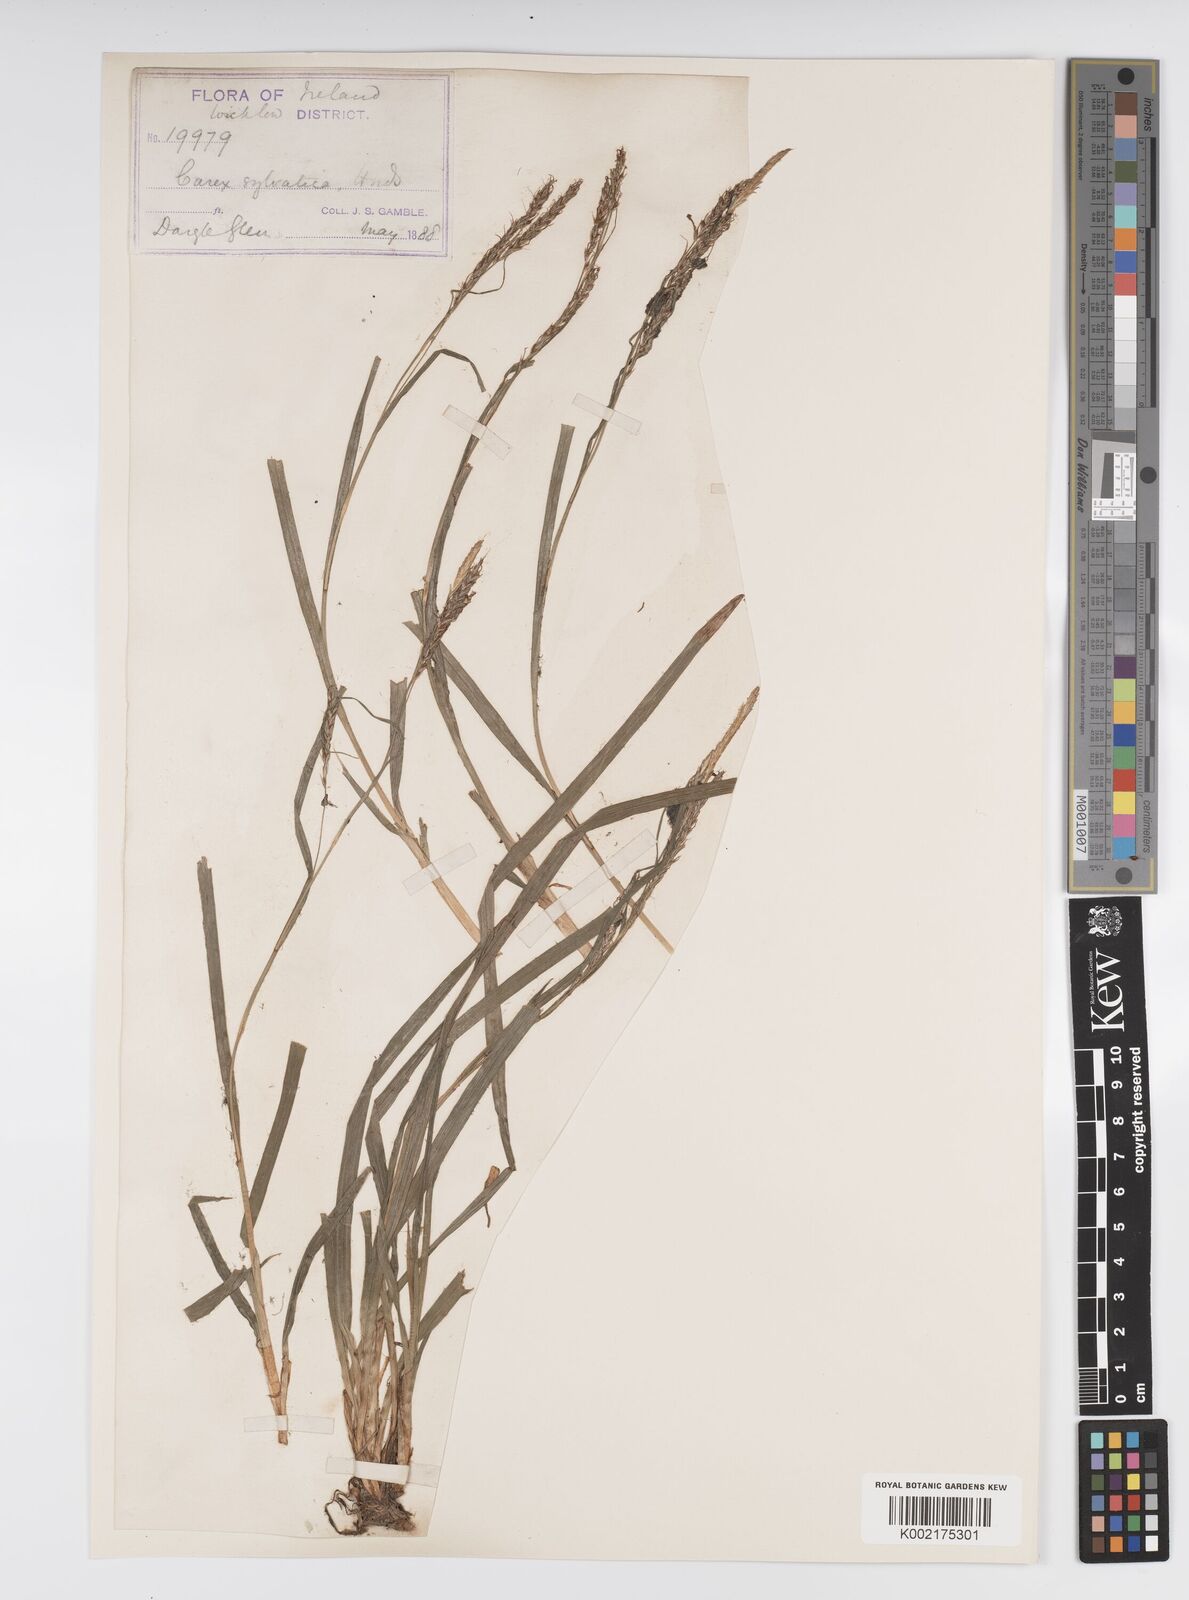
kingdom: Plantae
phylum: Tracheophyta
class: Liliopsida
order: Poales
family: Cyperaceae
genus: Carex
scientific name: Carex sylvatica
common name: Wood-sedge
